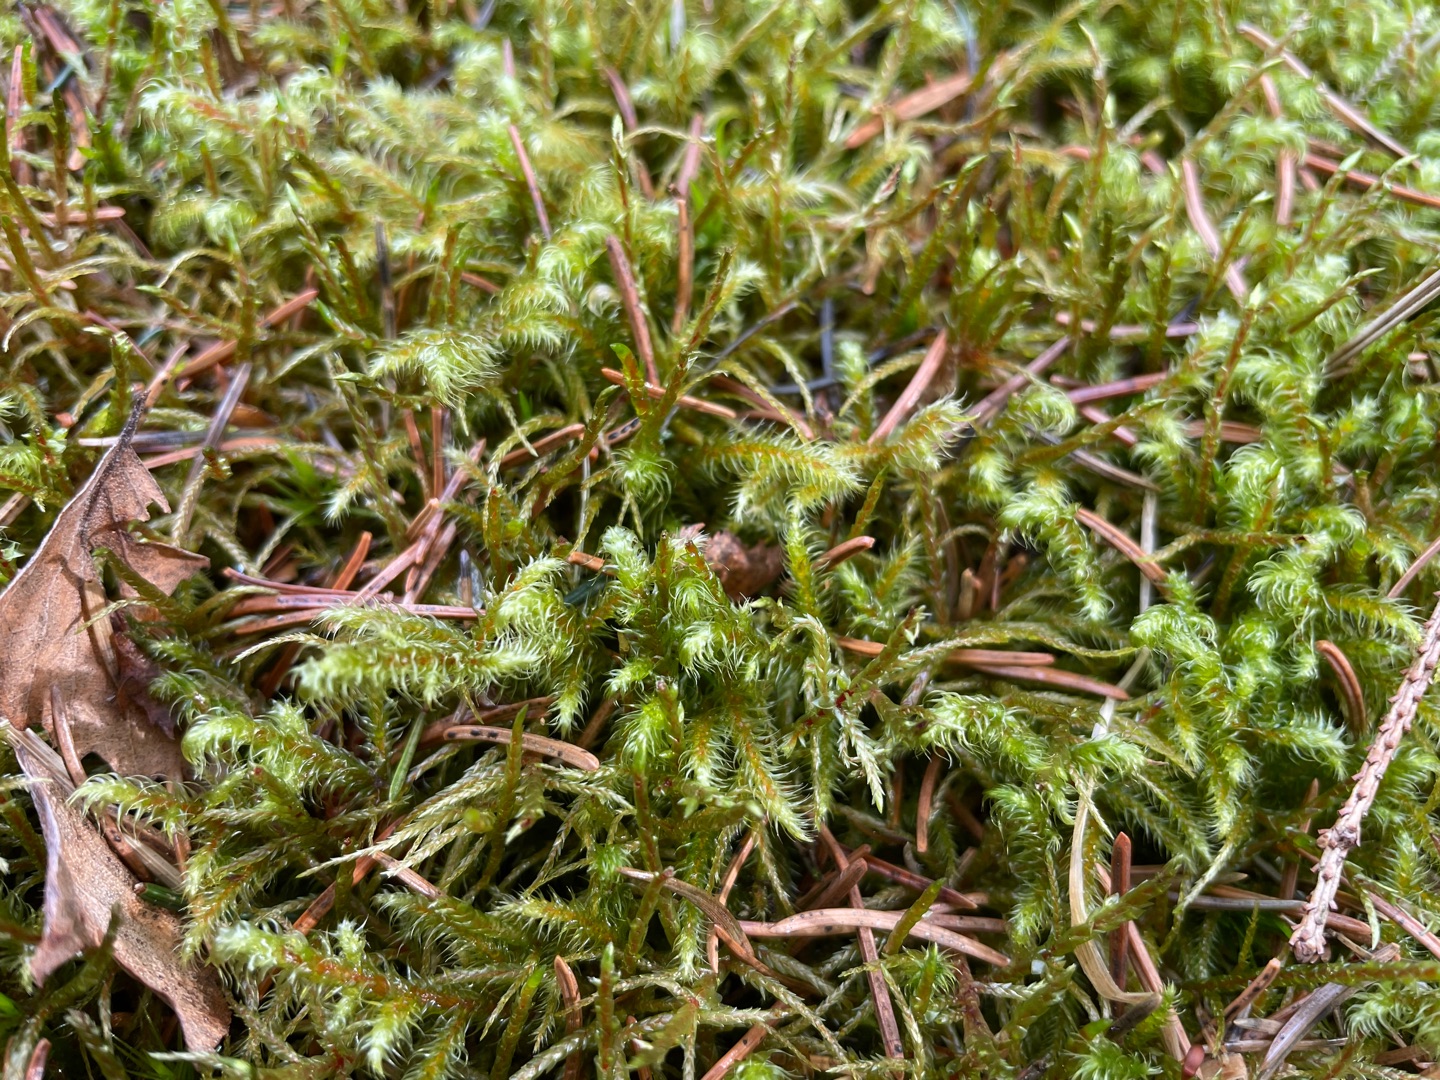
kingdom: Plantae
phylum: Bryophyta
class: Bryopsida
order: Hypnales
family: Hylocomiaceae
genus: Rhytidiadelphus
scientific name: Rhytidiadelphus loreus
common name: Ulvefod-kransemos
